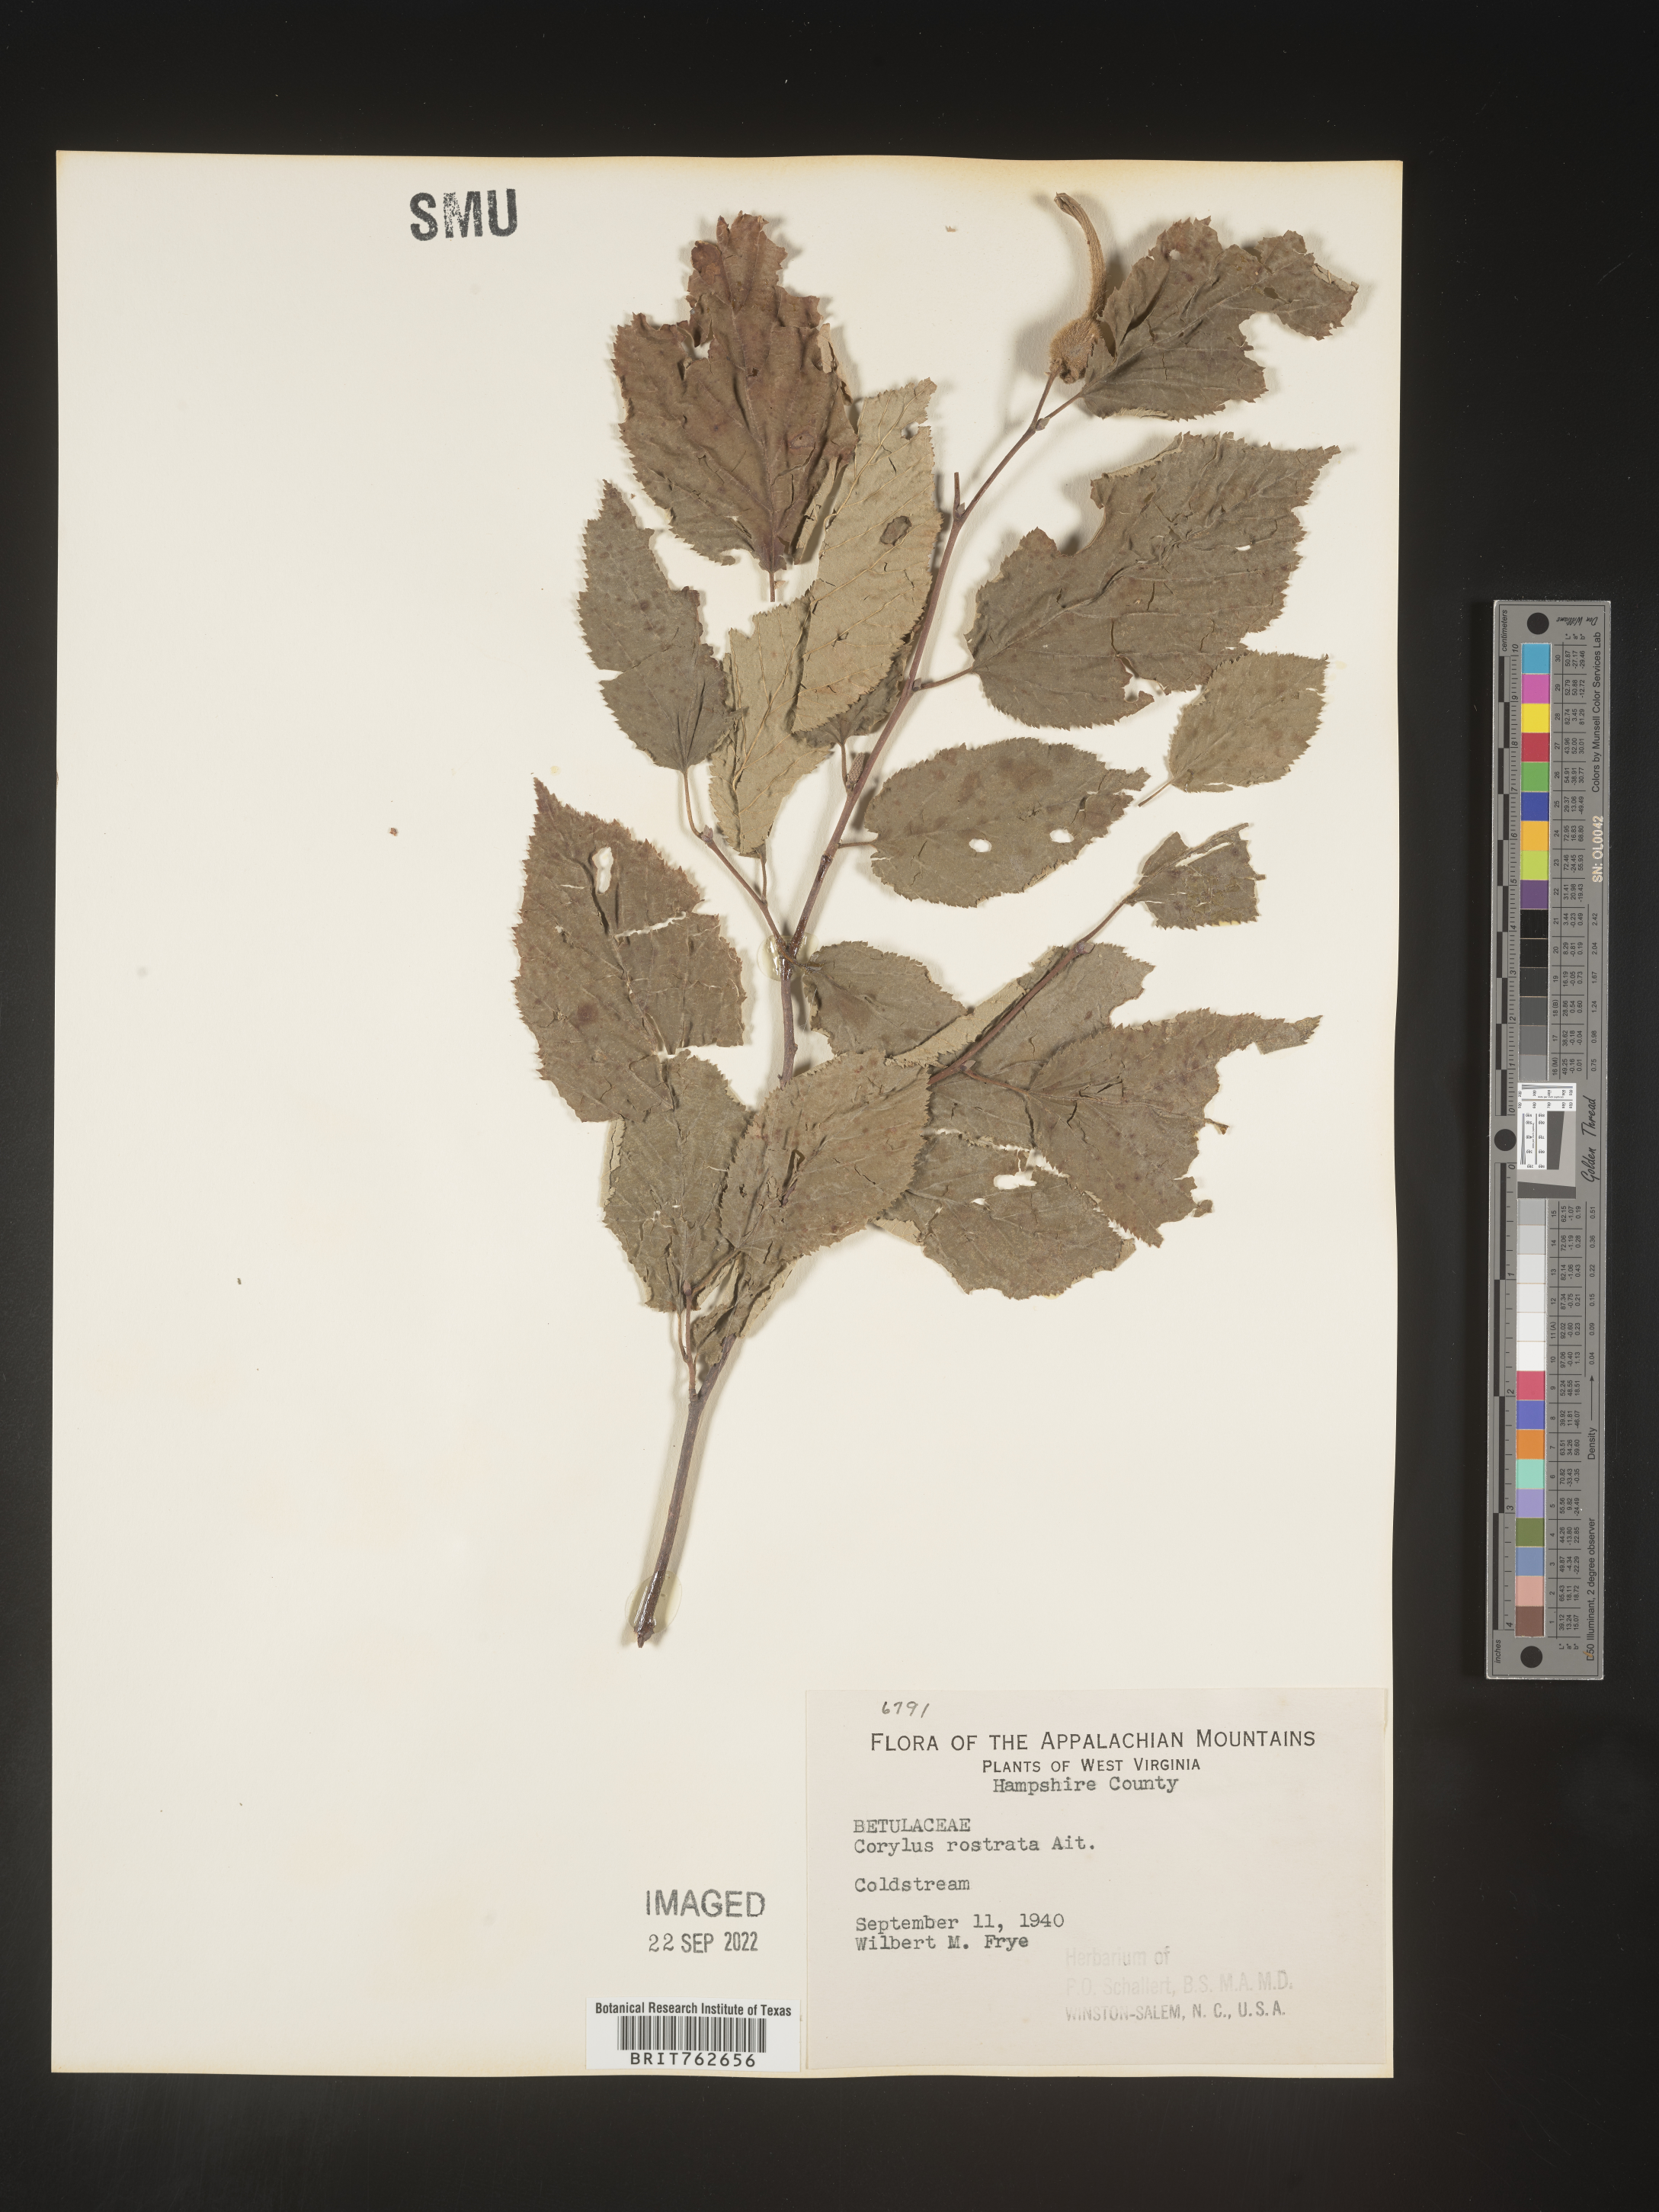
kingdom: Plantae
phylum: Tracheophyta
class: Magnoliopsida
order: Fagales
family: Betulaceae
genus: Corylus
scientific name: Corylus cornuta
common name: Beaked hazel
